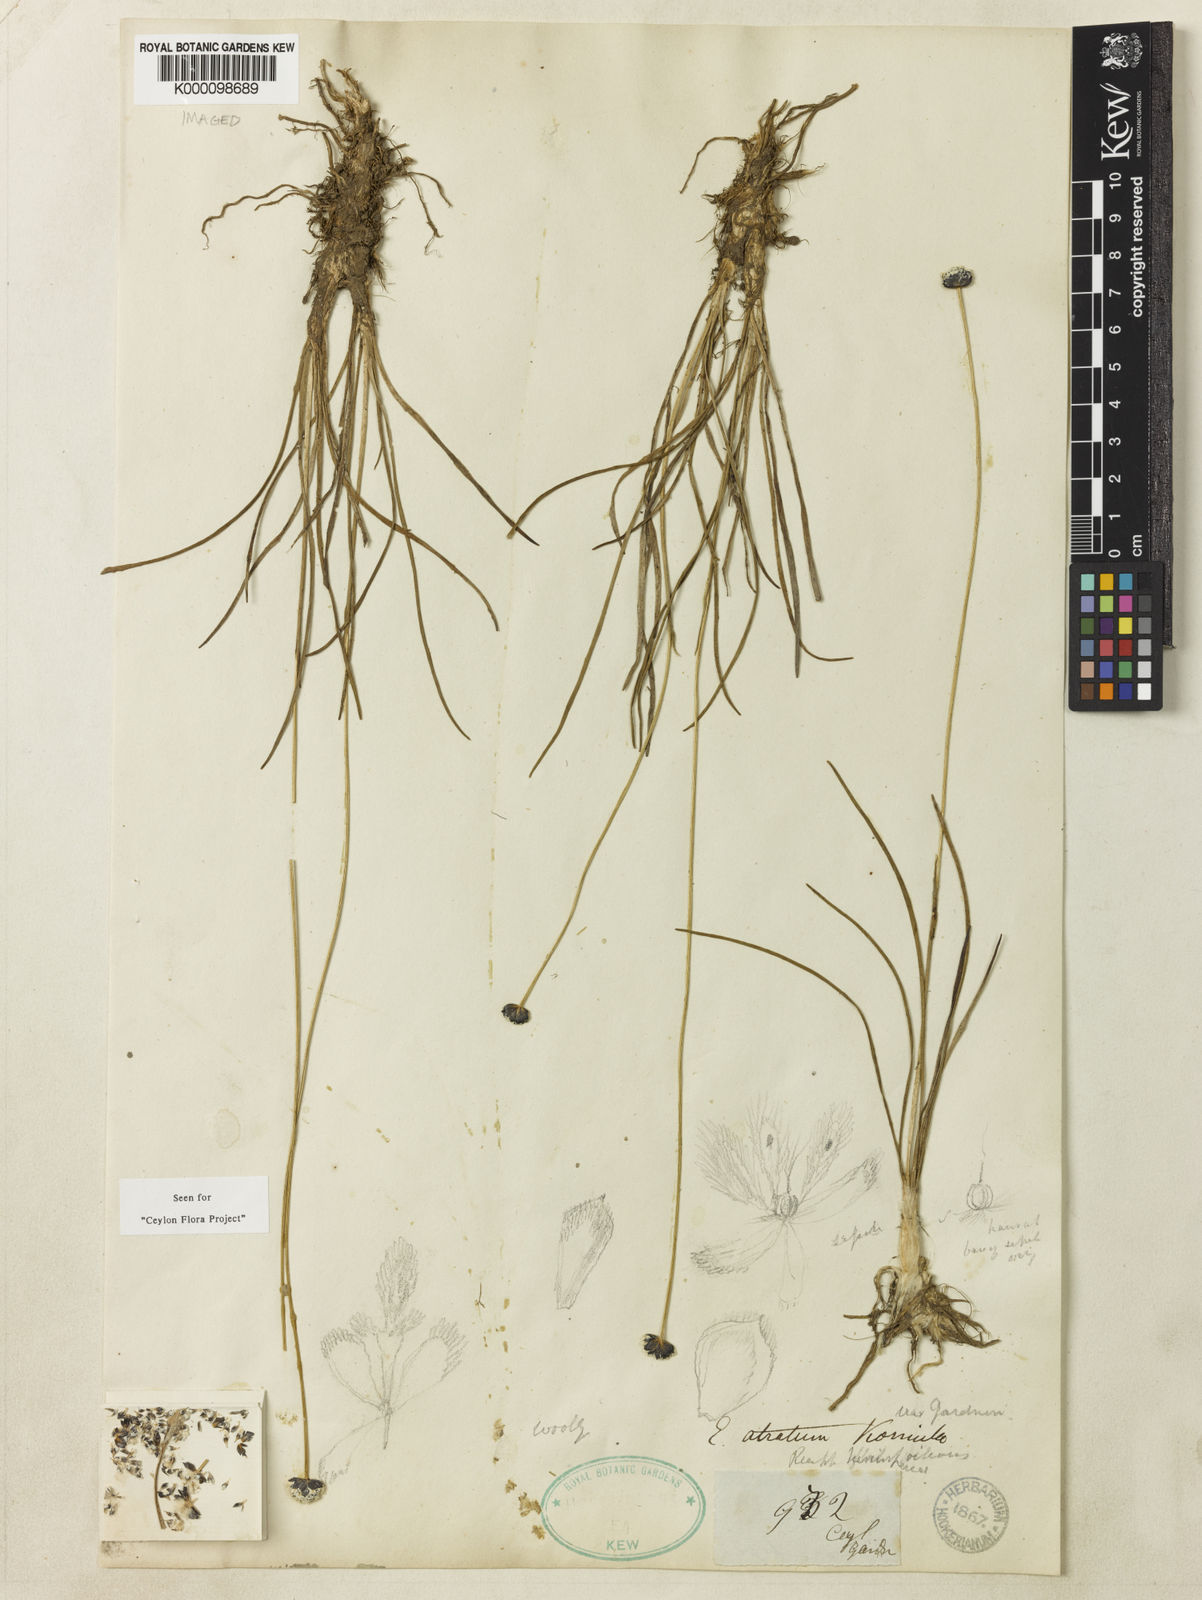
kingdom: Plantae
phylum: Tracheophyta
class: Liliopsida
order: Poales
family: Eriocaulaceae
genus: Eriocaulon
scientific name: Eriocaulon
